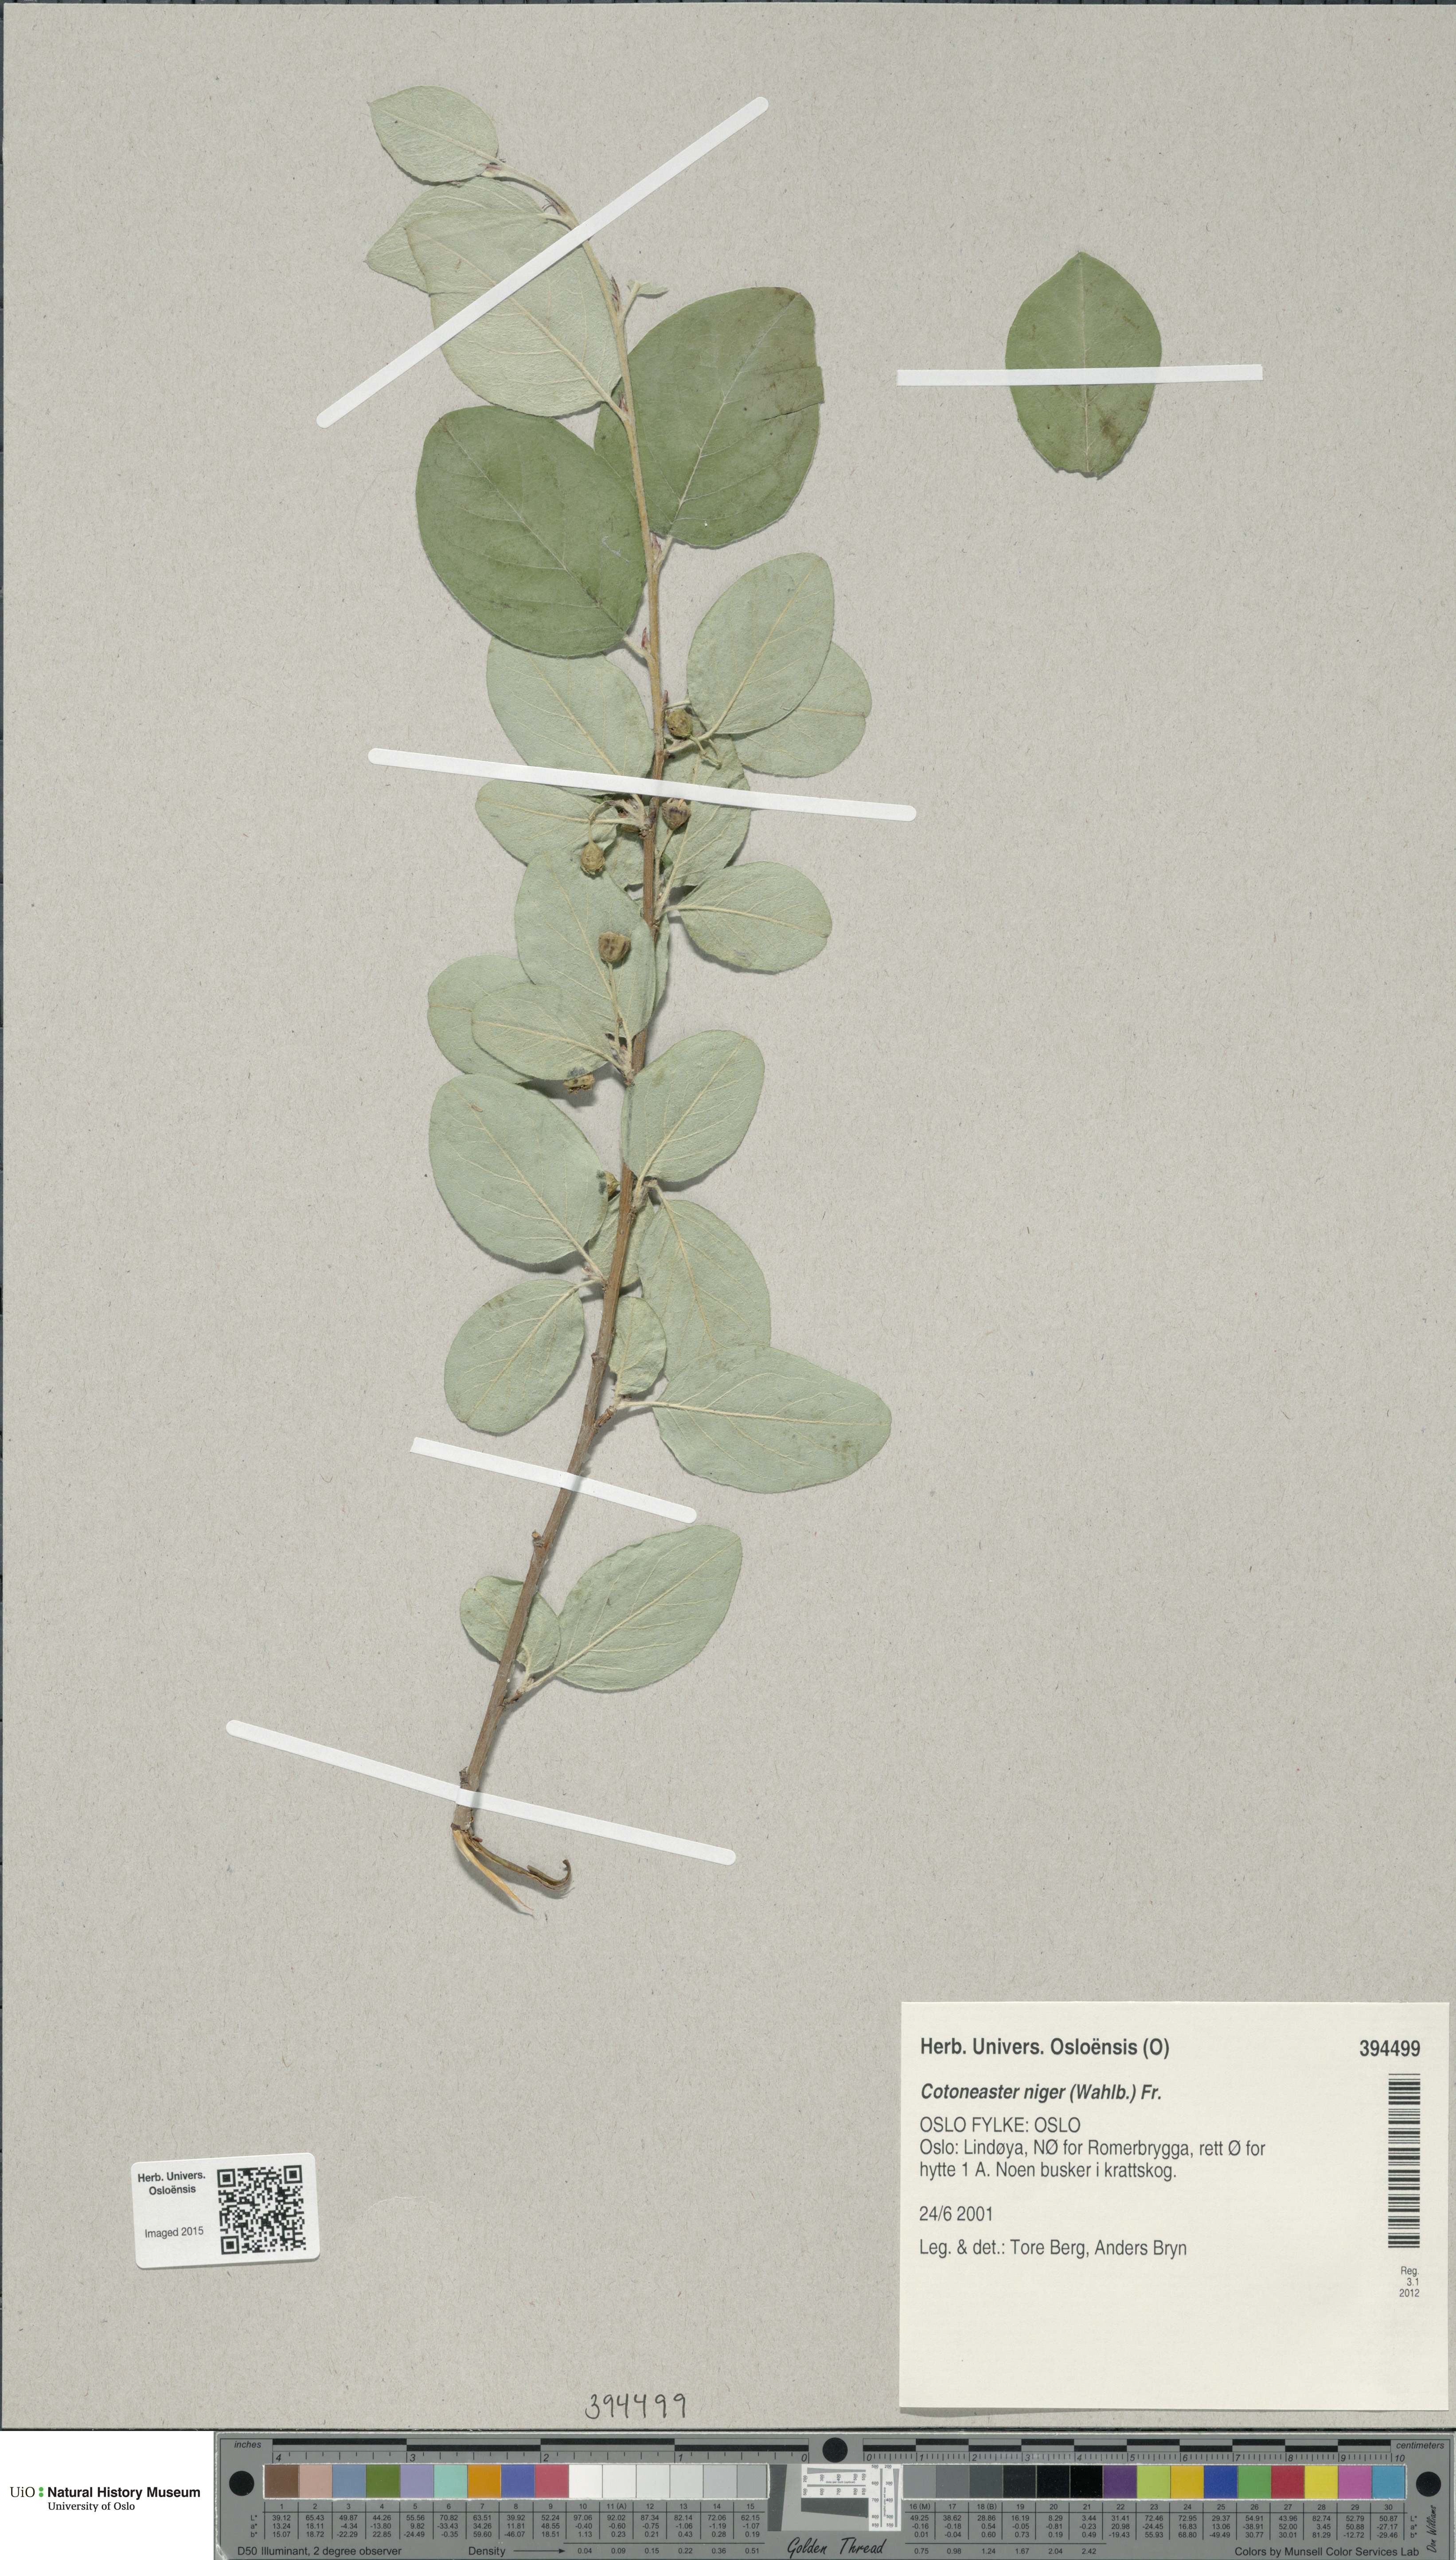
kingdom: Plantae
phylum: Tracheophyta
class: Magnoliopsida
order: Rosales
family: Rosaceae
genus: Cotoneaster
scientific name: Cotoneaster niger
